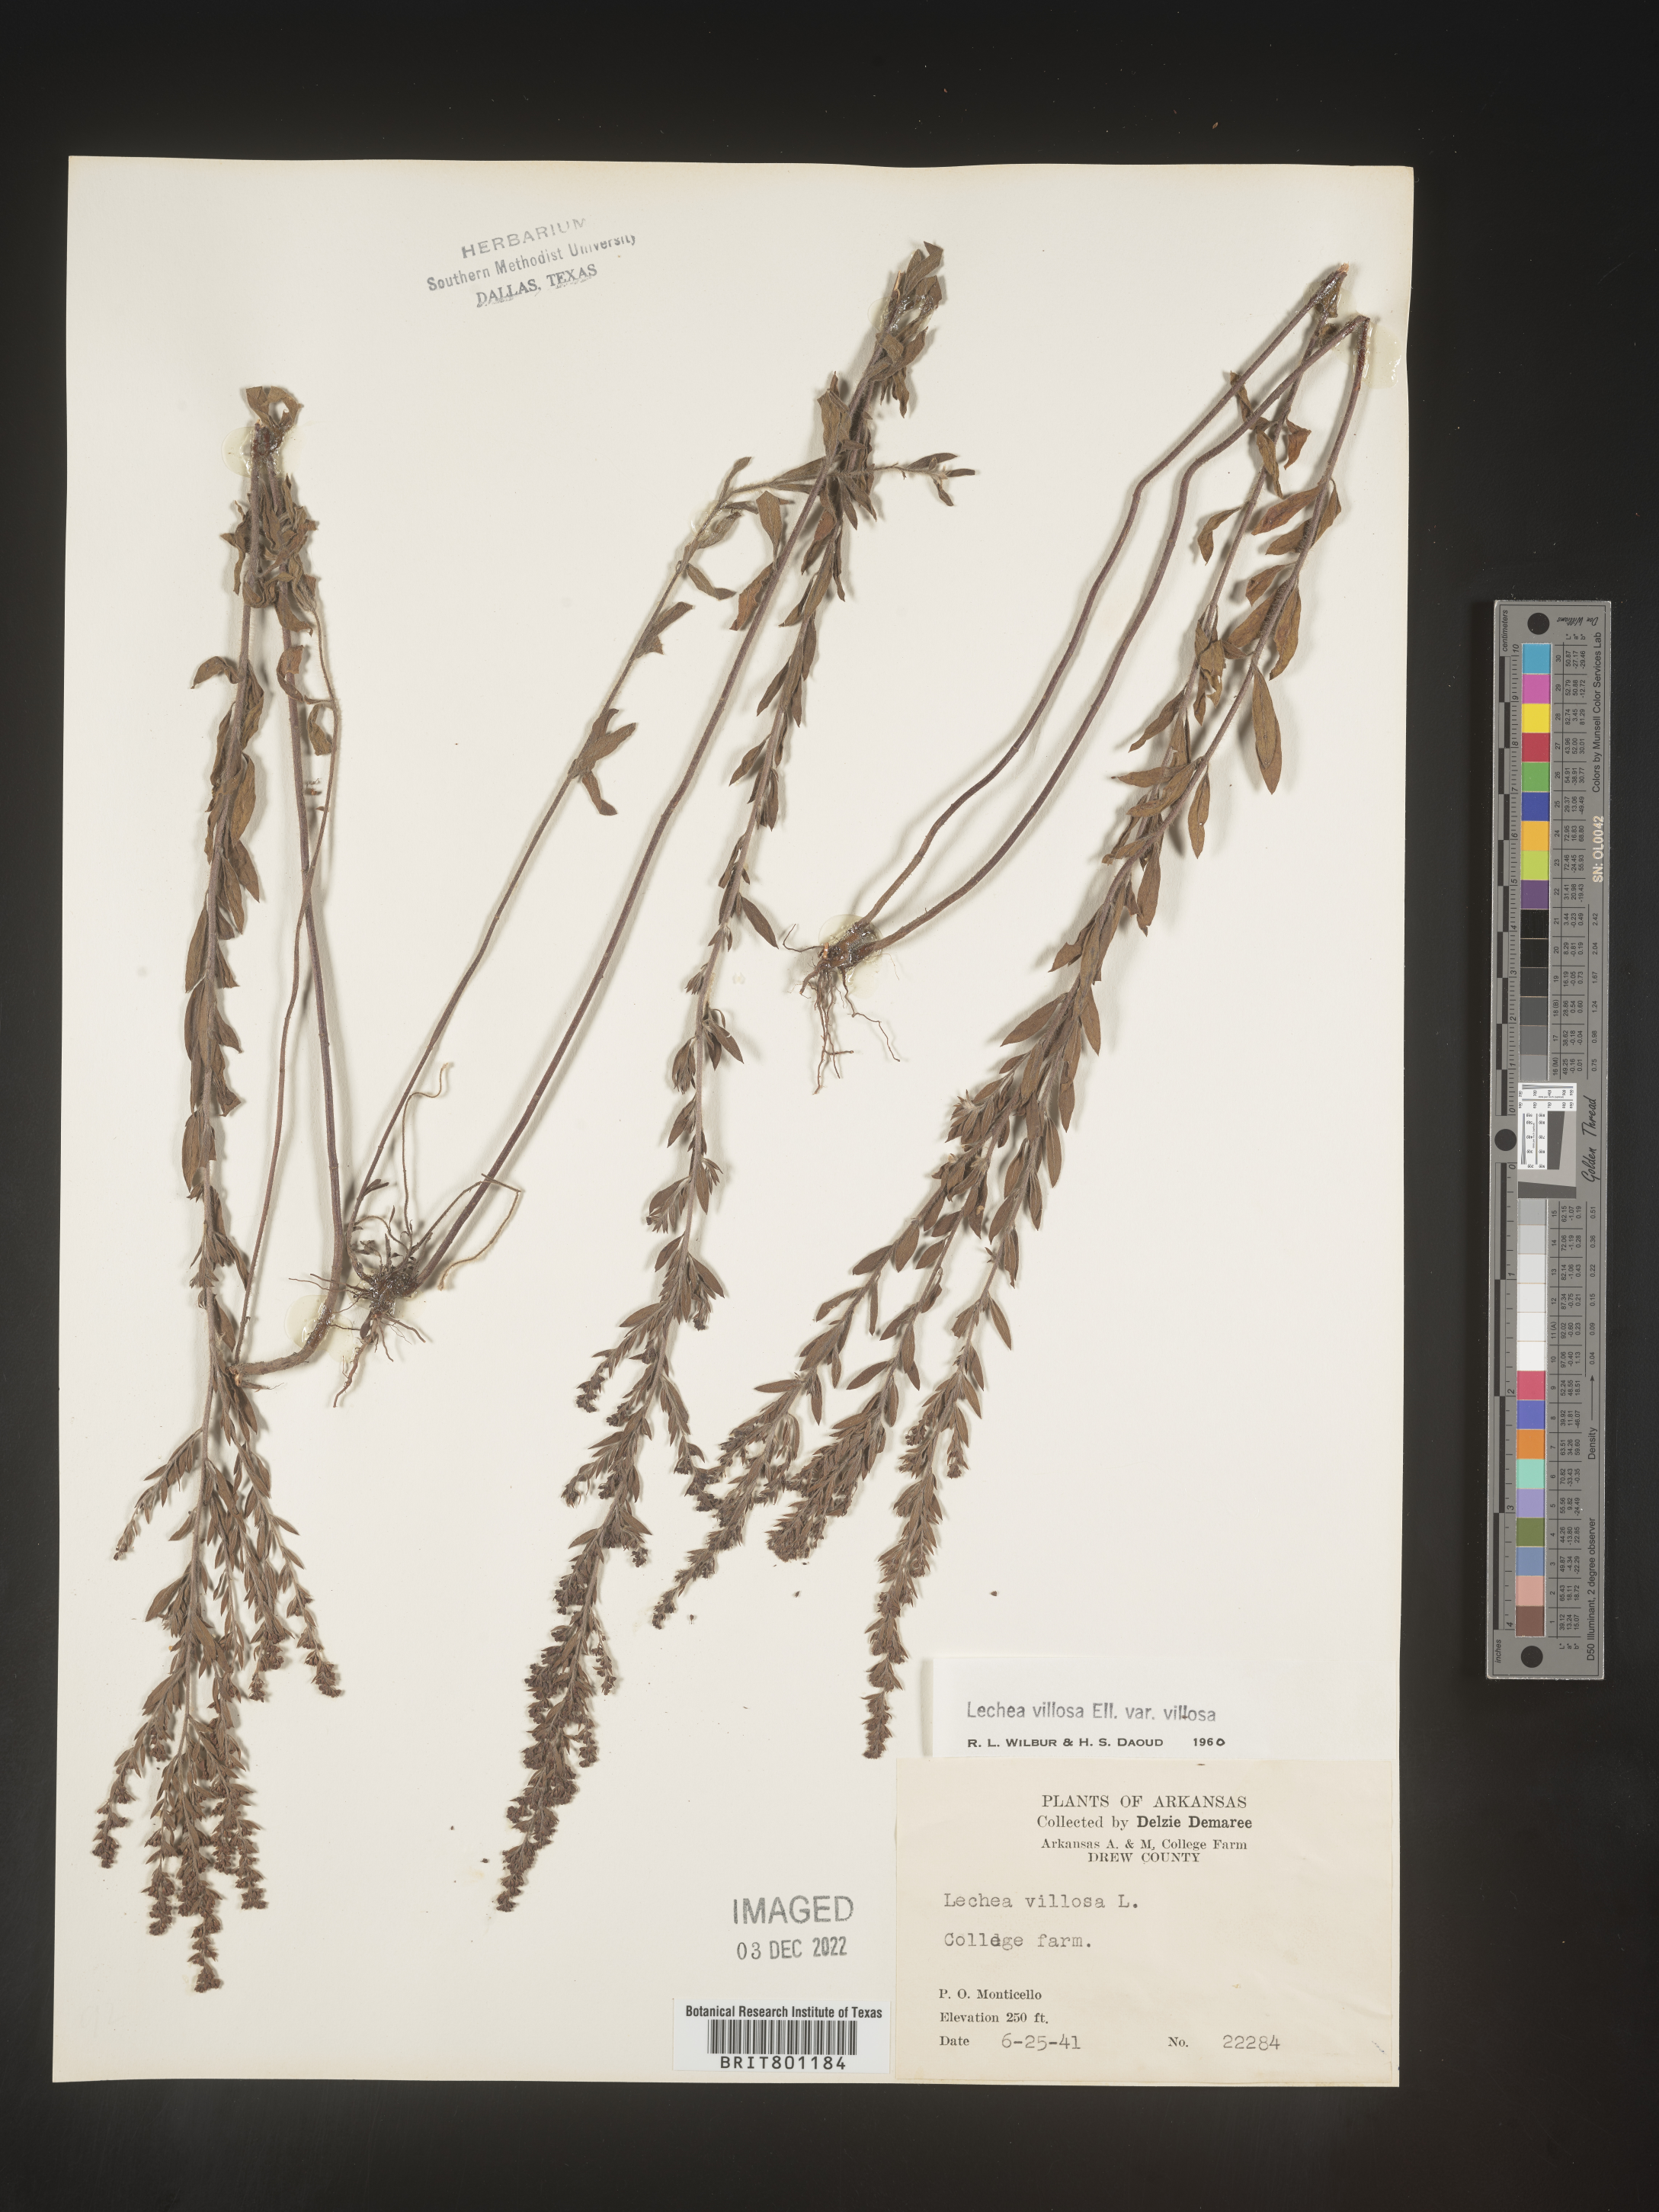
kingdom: Plantae
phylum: Tracheophyta
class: Magnoliopsida
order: Malvales
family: Cistaceae
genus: Lechea
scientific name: Lechea mucronata
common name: Hairy pinweed
